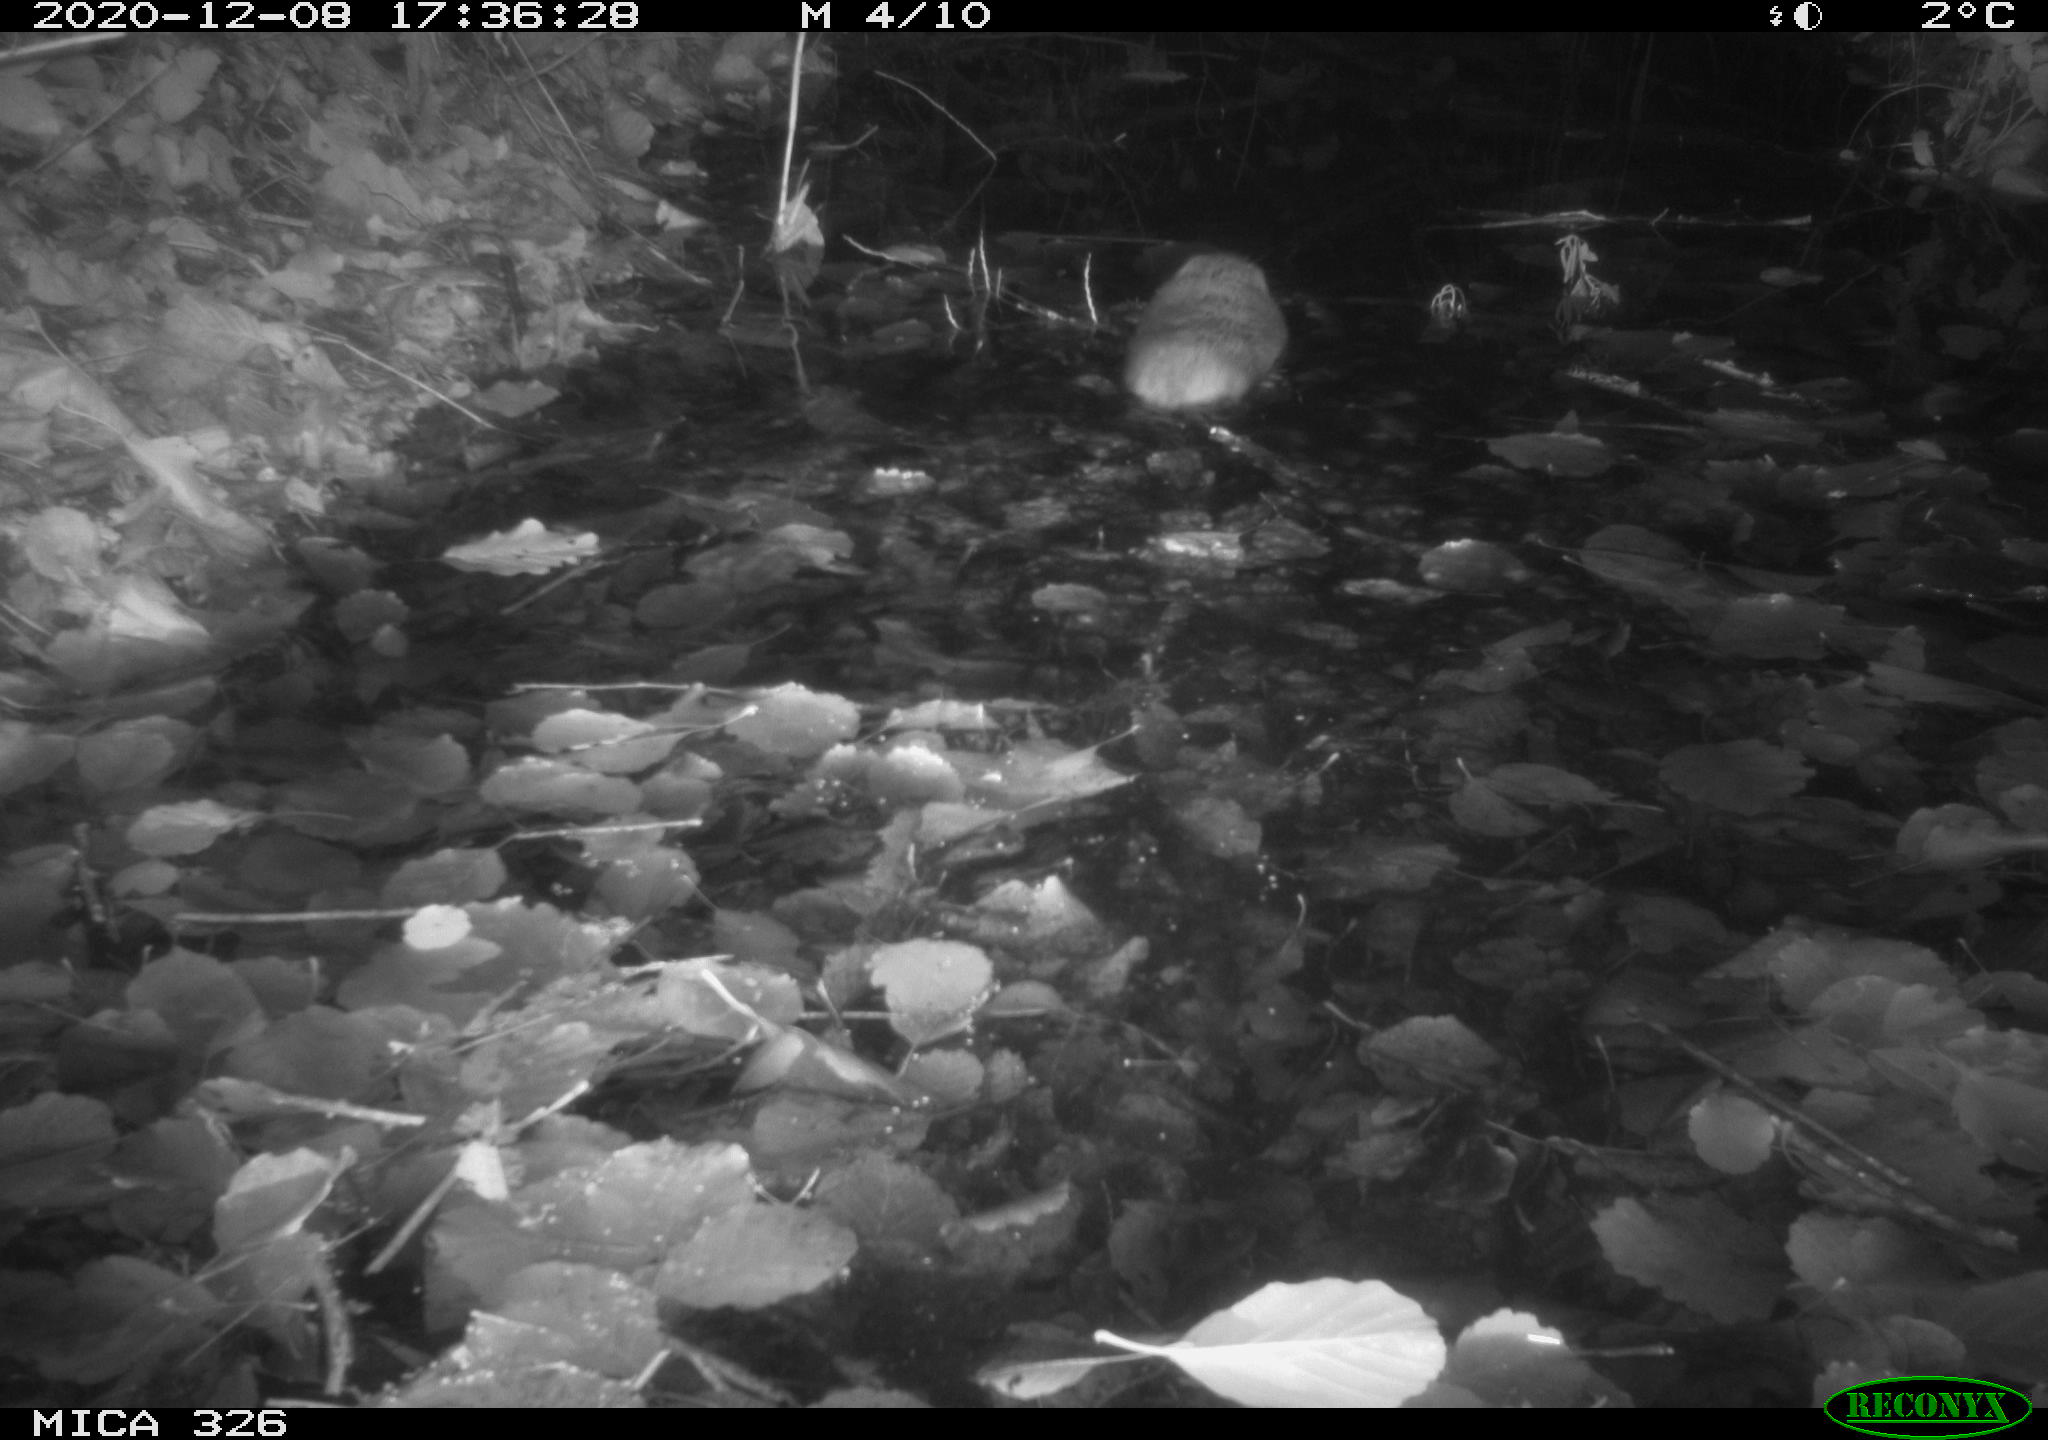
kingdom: Animalia
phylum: Chordata
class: Mammalia
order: Rodentia
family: Cricetidae
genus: Ondatra
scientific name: Ondatra zibethicus
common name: Muskrat
